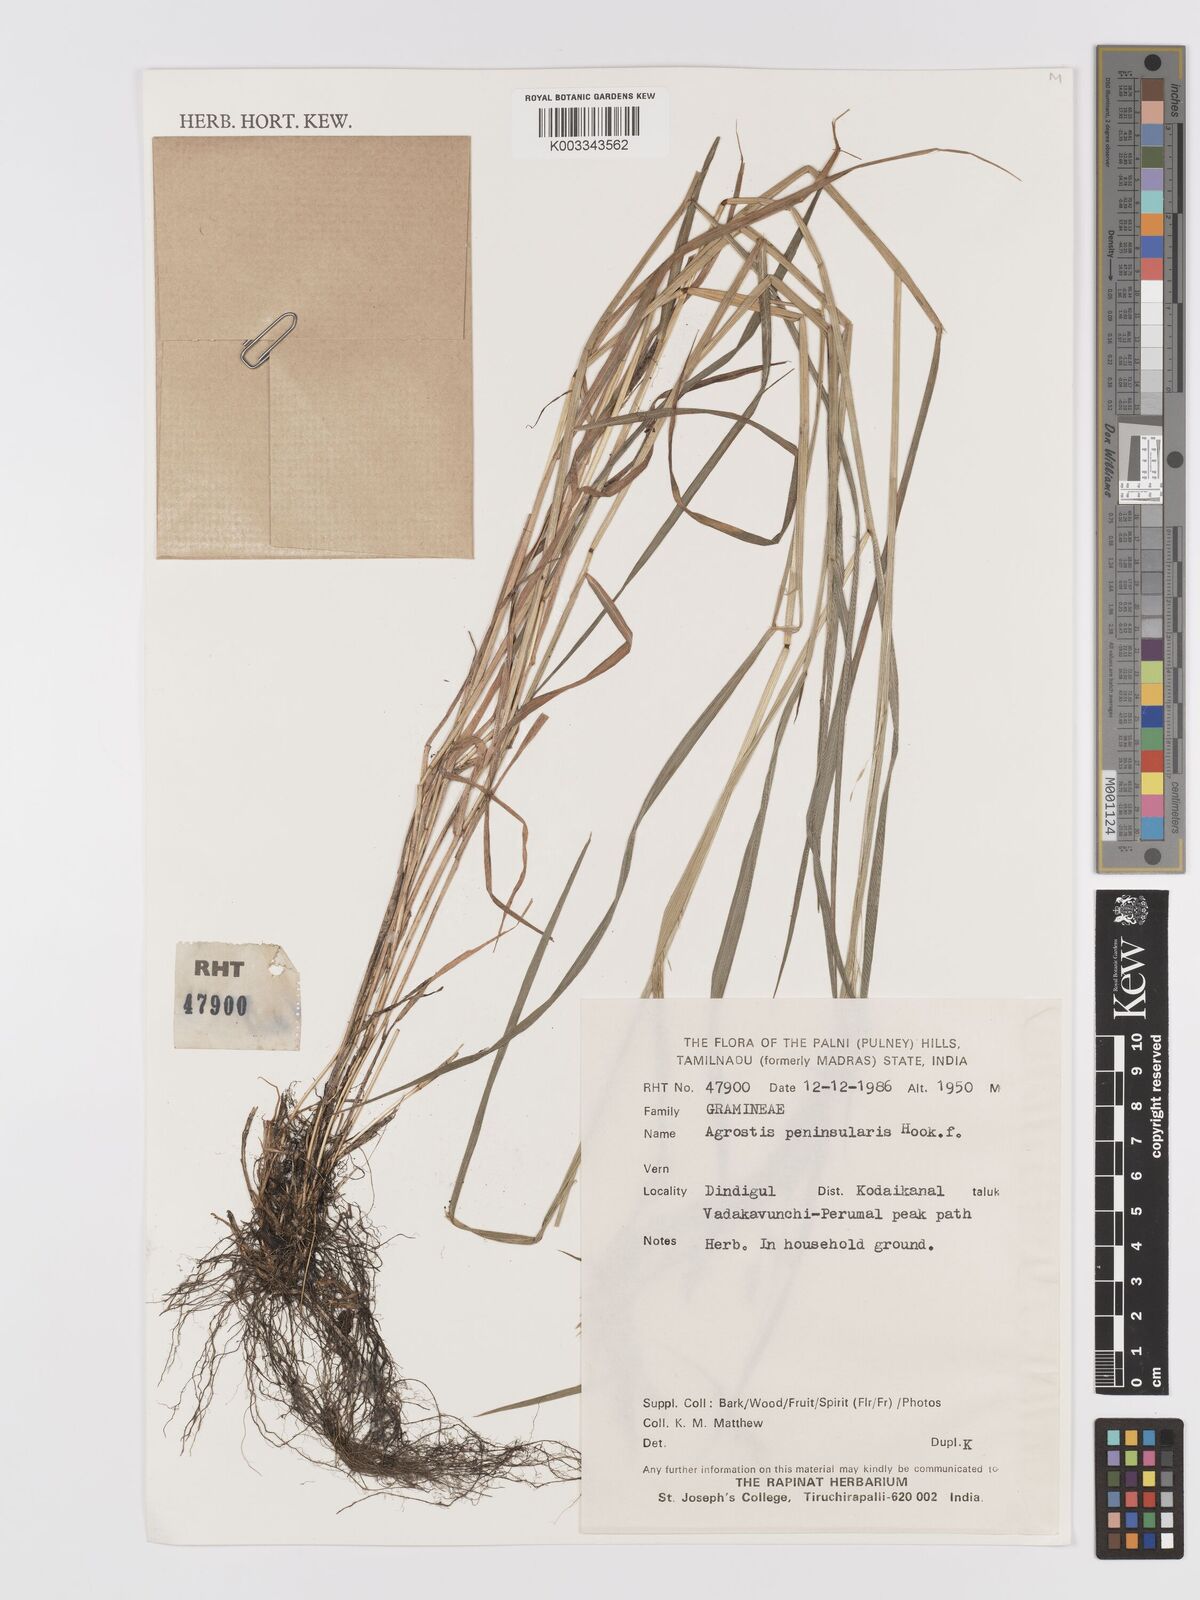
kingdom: Plantae
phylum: Tracheophyta
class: Liliopsida
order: Poales
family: Poaceae
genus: Agrostis
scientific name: Agrostis peninsularis
